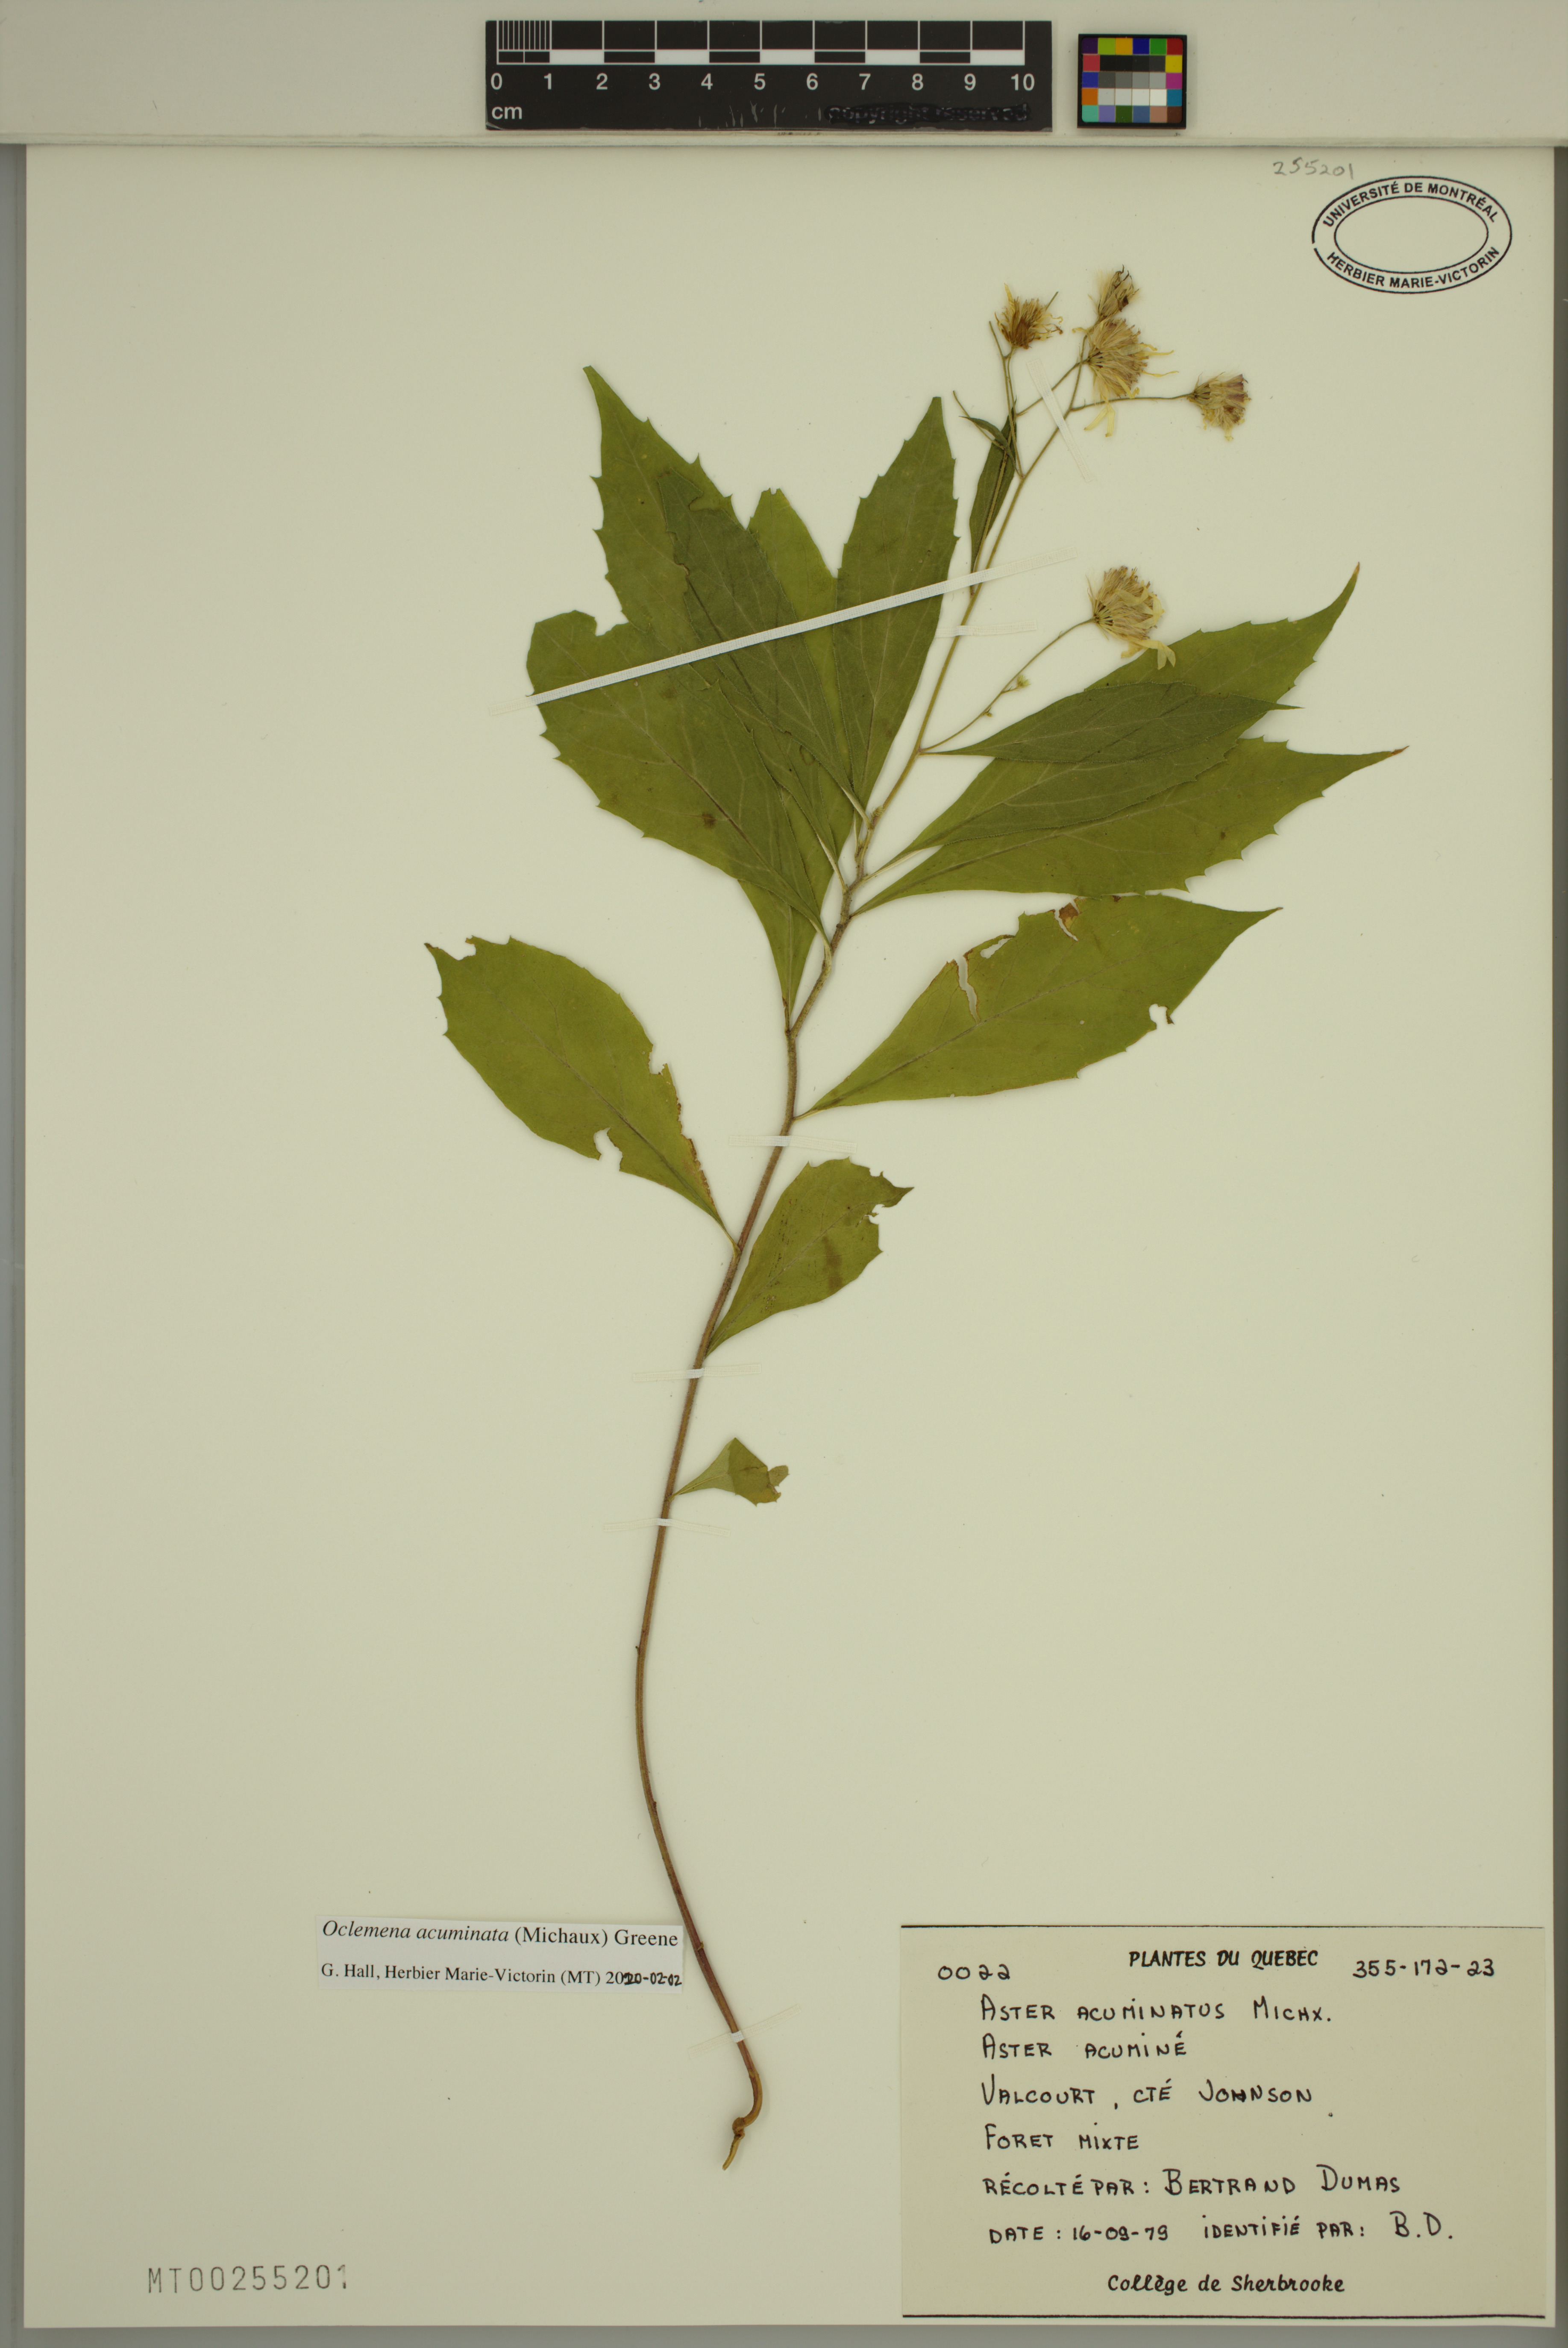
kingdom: Plantae
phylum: Tracheophyta
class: Magnoliopsida
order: Asterales
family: Asteraceae
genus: Oclemena
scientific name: Oclemena acuminata
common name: Mountain aster
